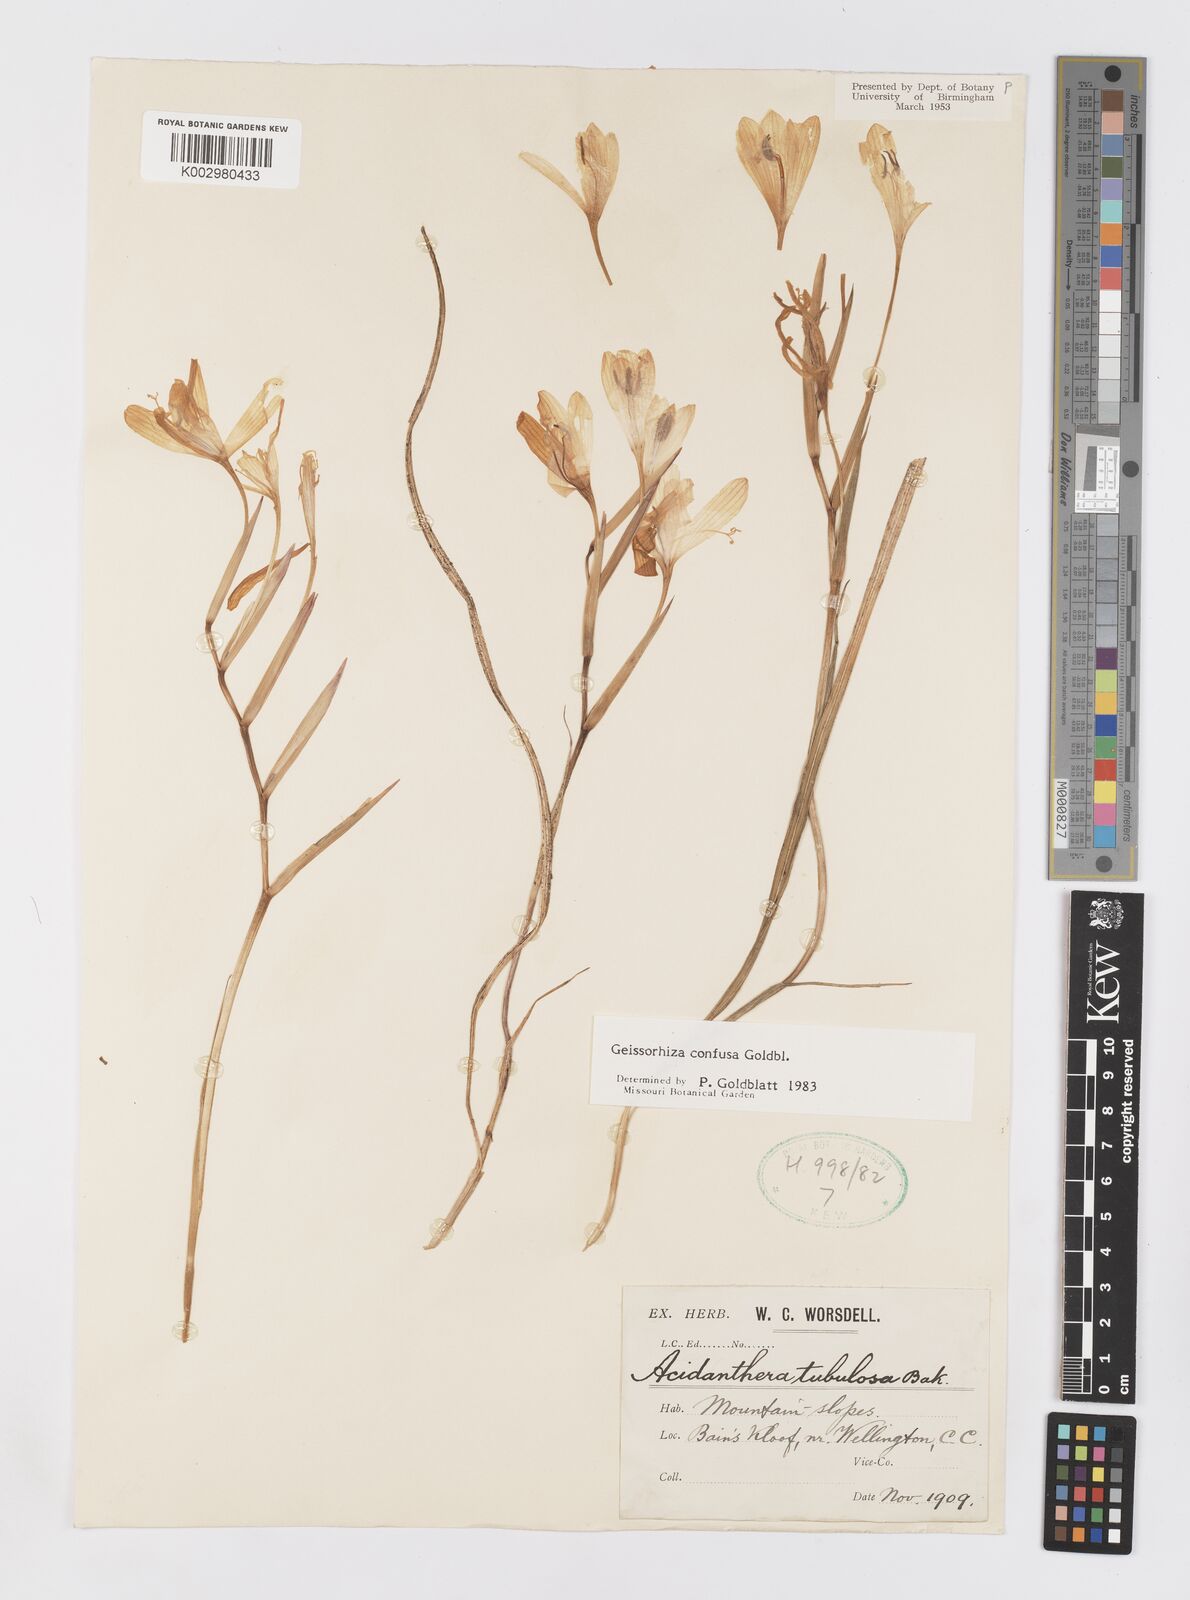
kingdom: Plantae
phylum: Tracheophyta
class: Liliopsida
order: Asparagales
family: Iridaceae
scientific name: Iridaceae
